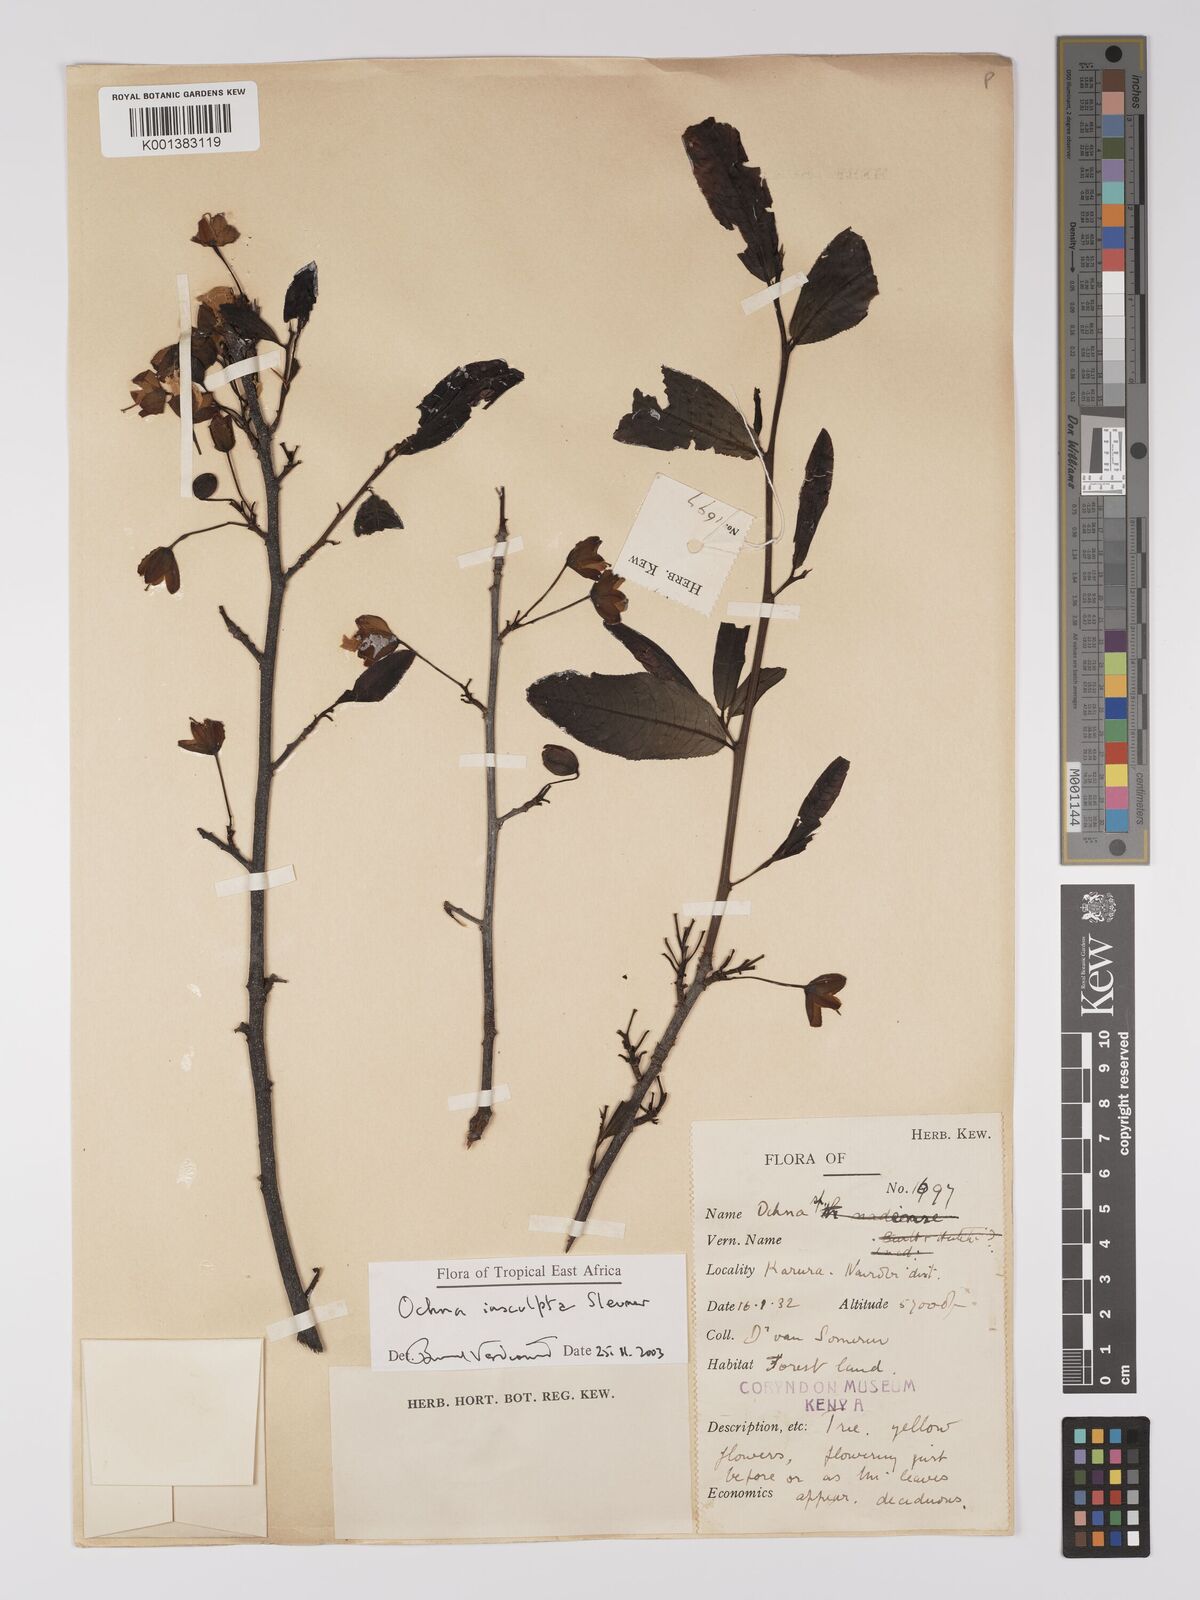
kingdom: Plantae
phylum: Tracheophyta
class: Magnoliopsida
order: Malpighiales
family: Ochnaceae
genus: Ochna
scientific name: Ochna insculpta
